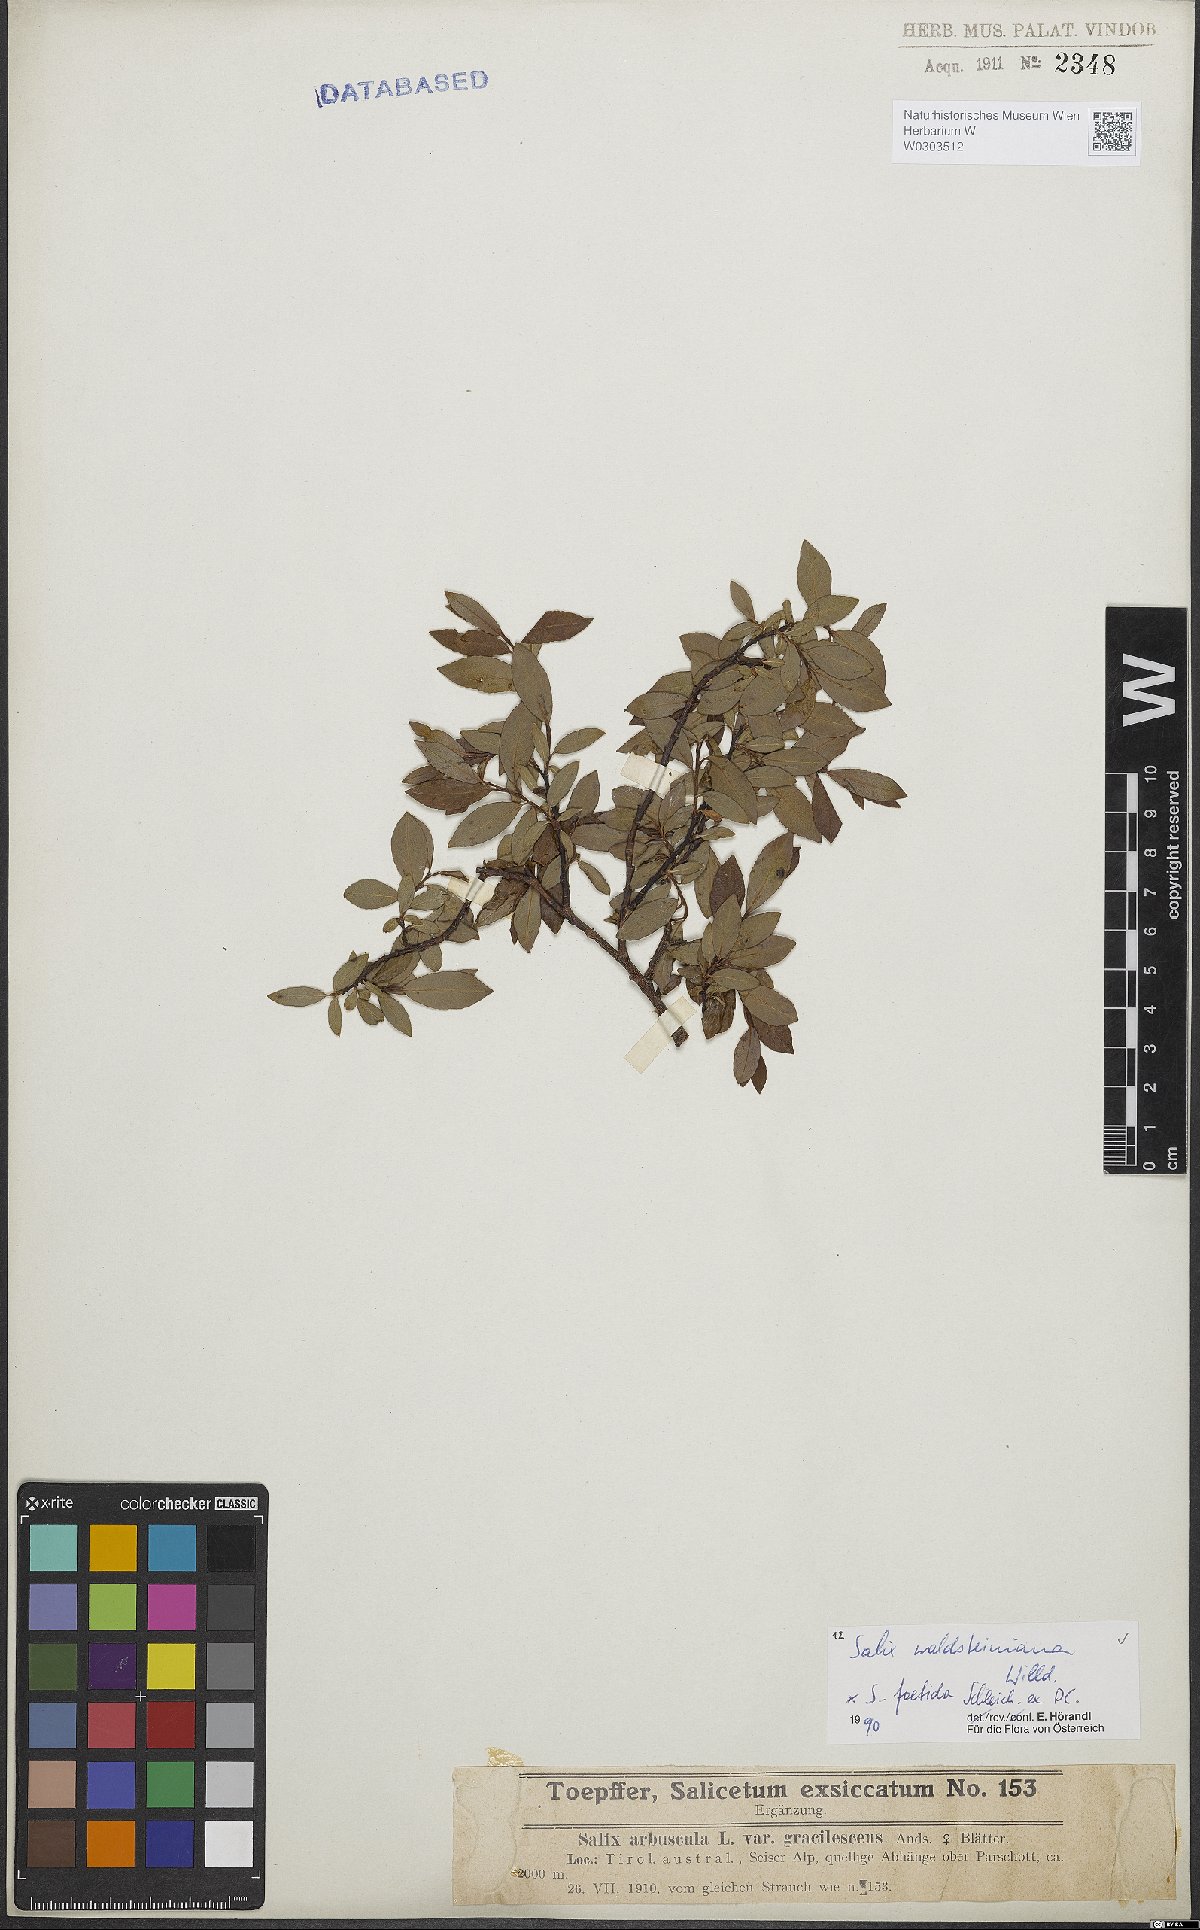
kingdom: Plantae
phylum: Tracheophyta
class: Magnoliopsida
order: Malpighiales
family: Salicaceae
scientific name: Salicaceae
